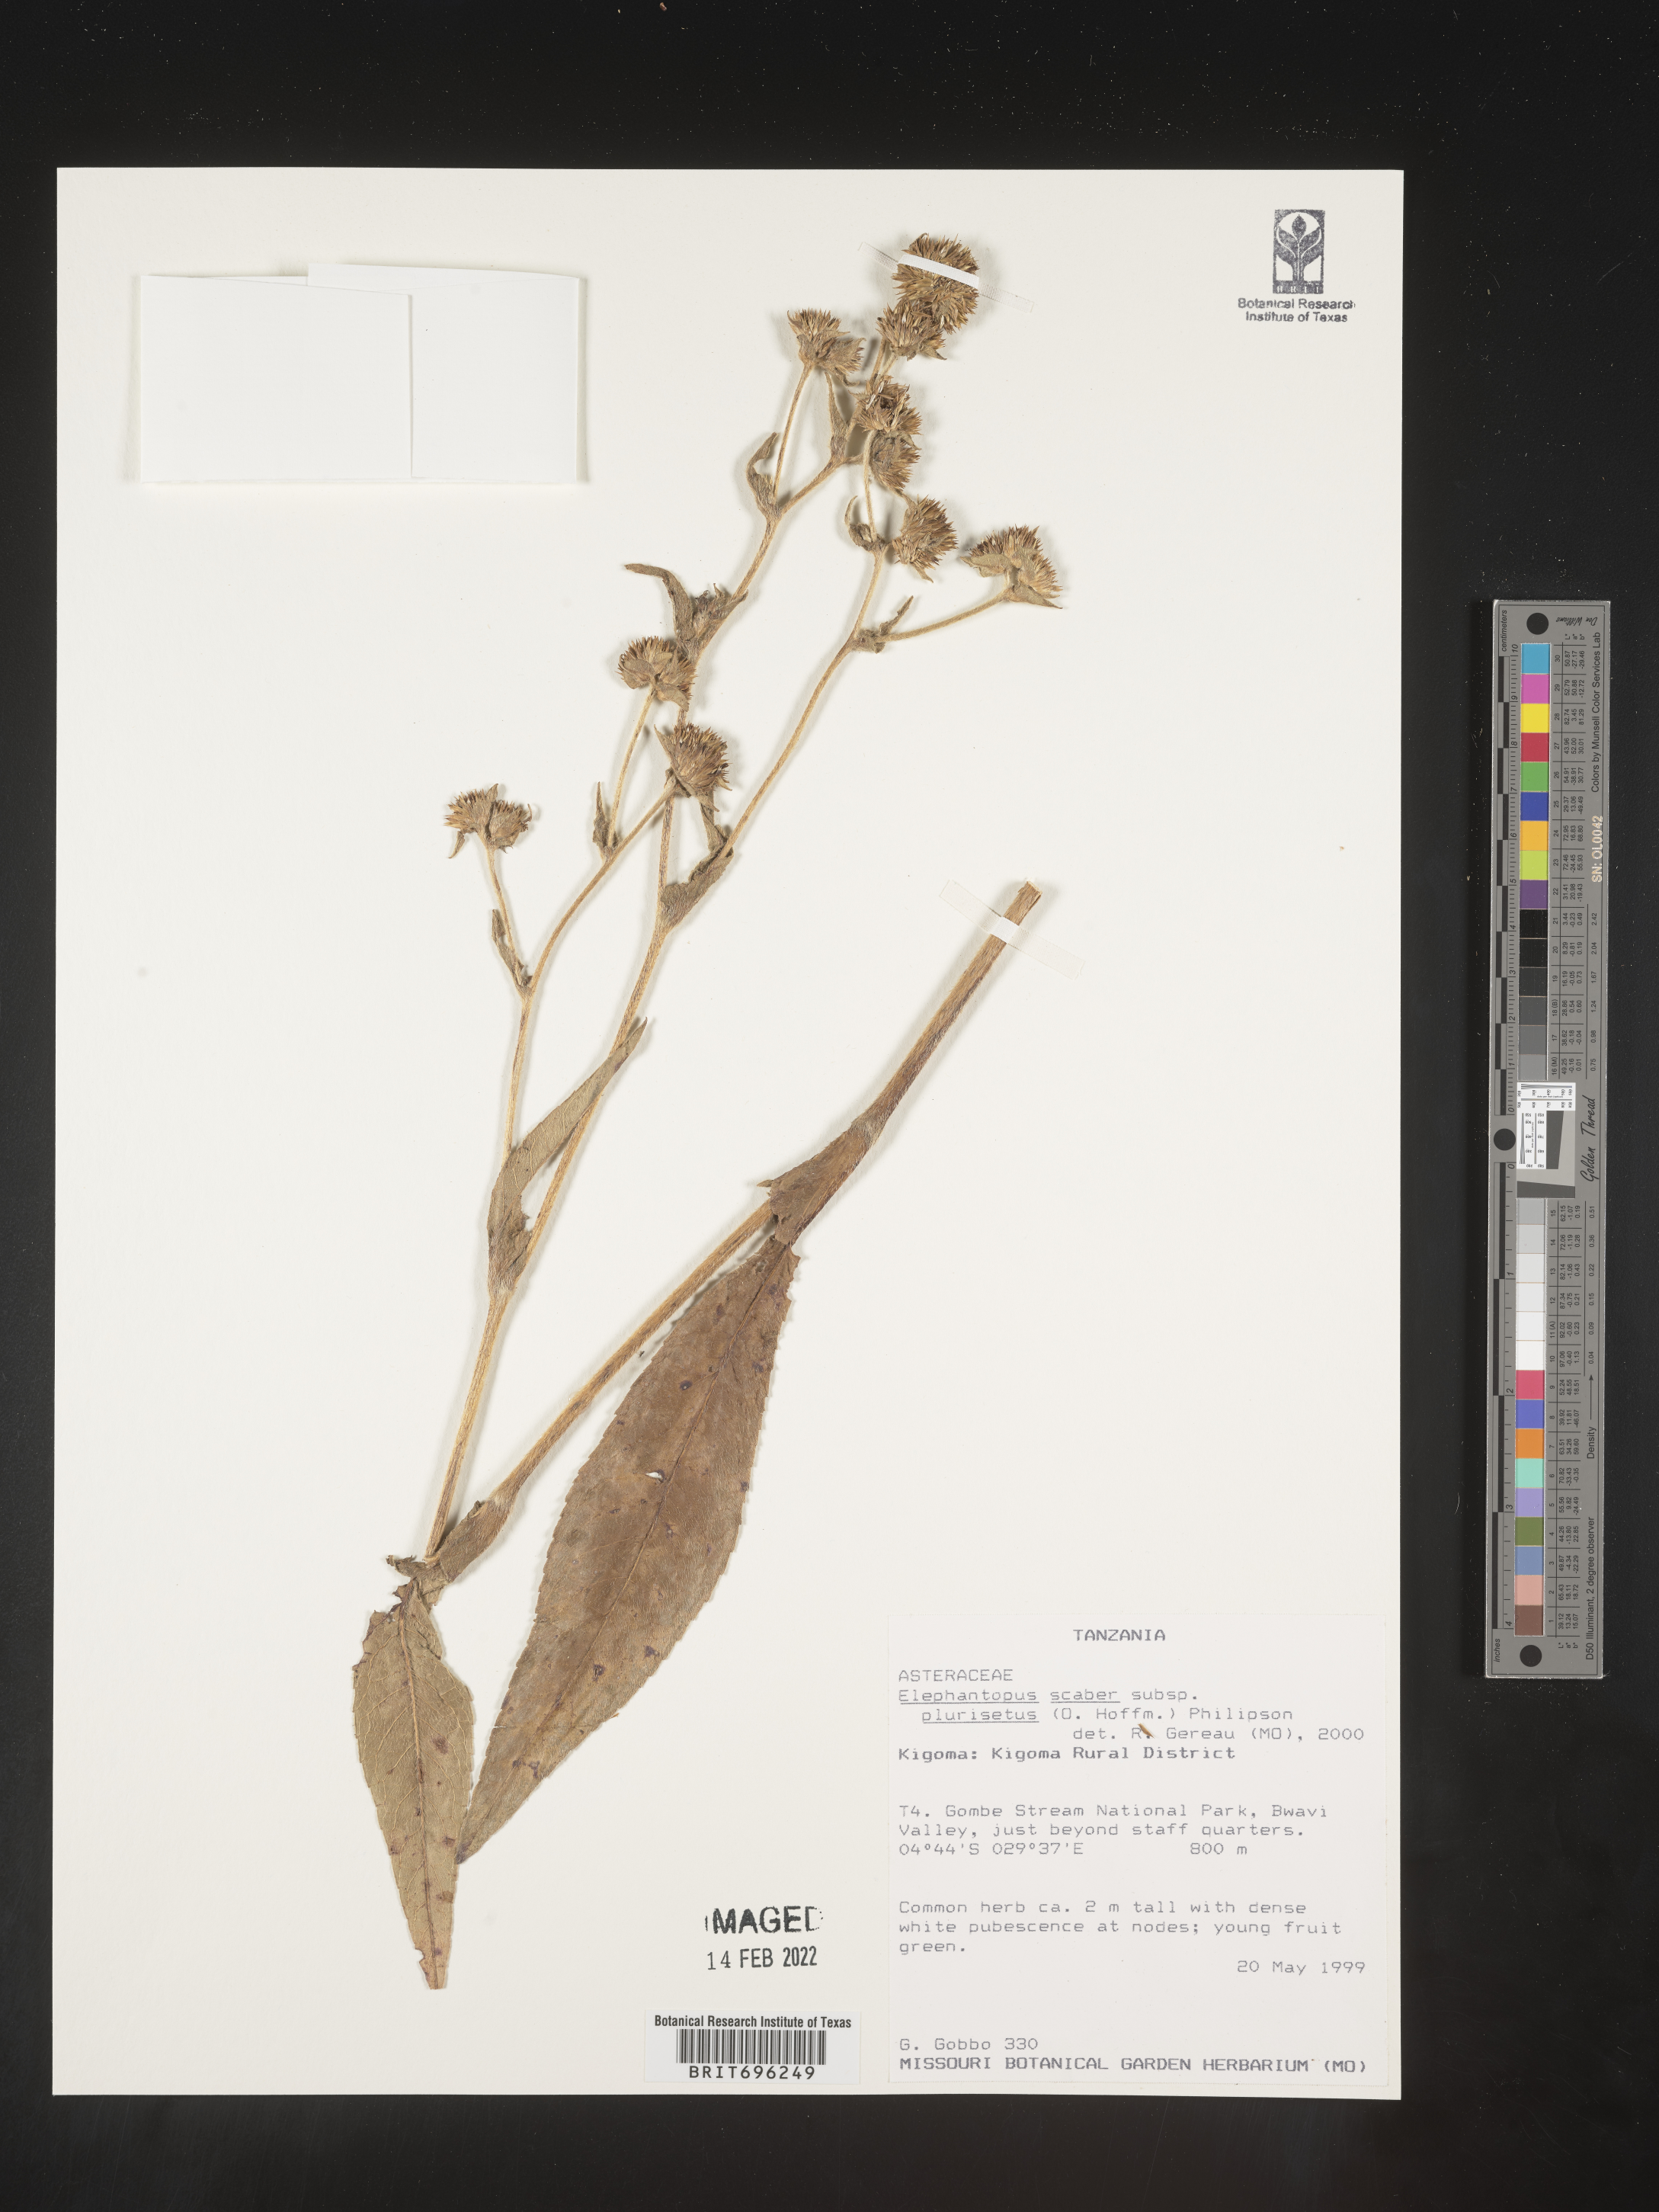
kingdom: Plantae
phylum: Tracheophyta
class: Magnoliopsida
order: Asterales
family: Asteraceae
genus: Elephantopus
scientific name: Elephantopus
